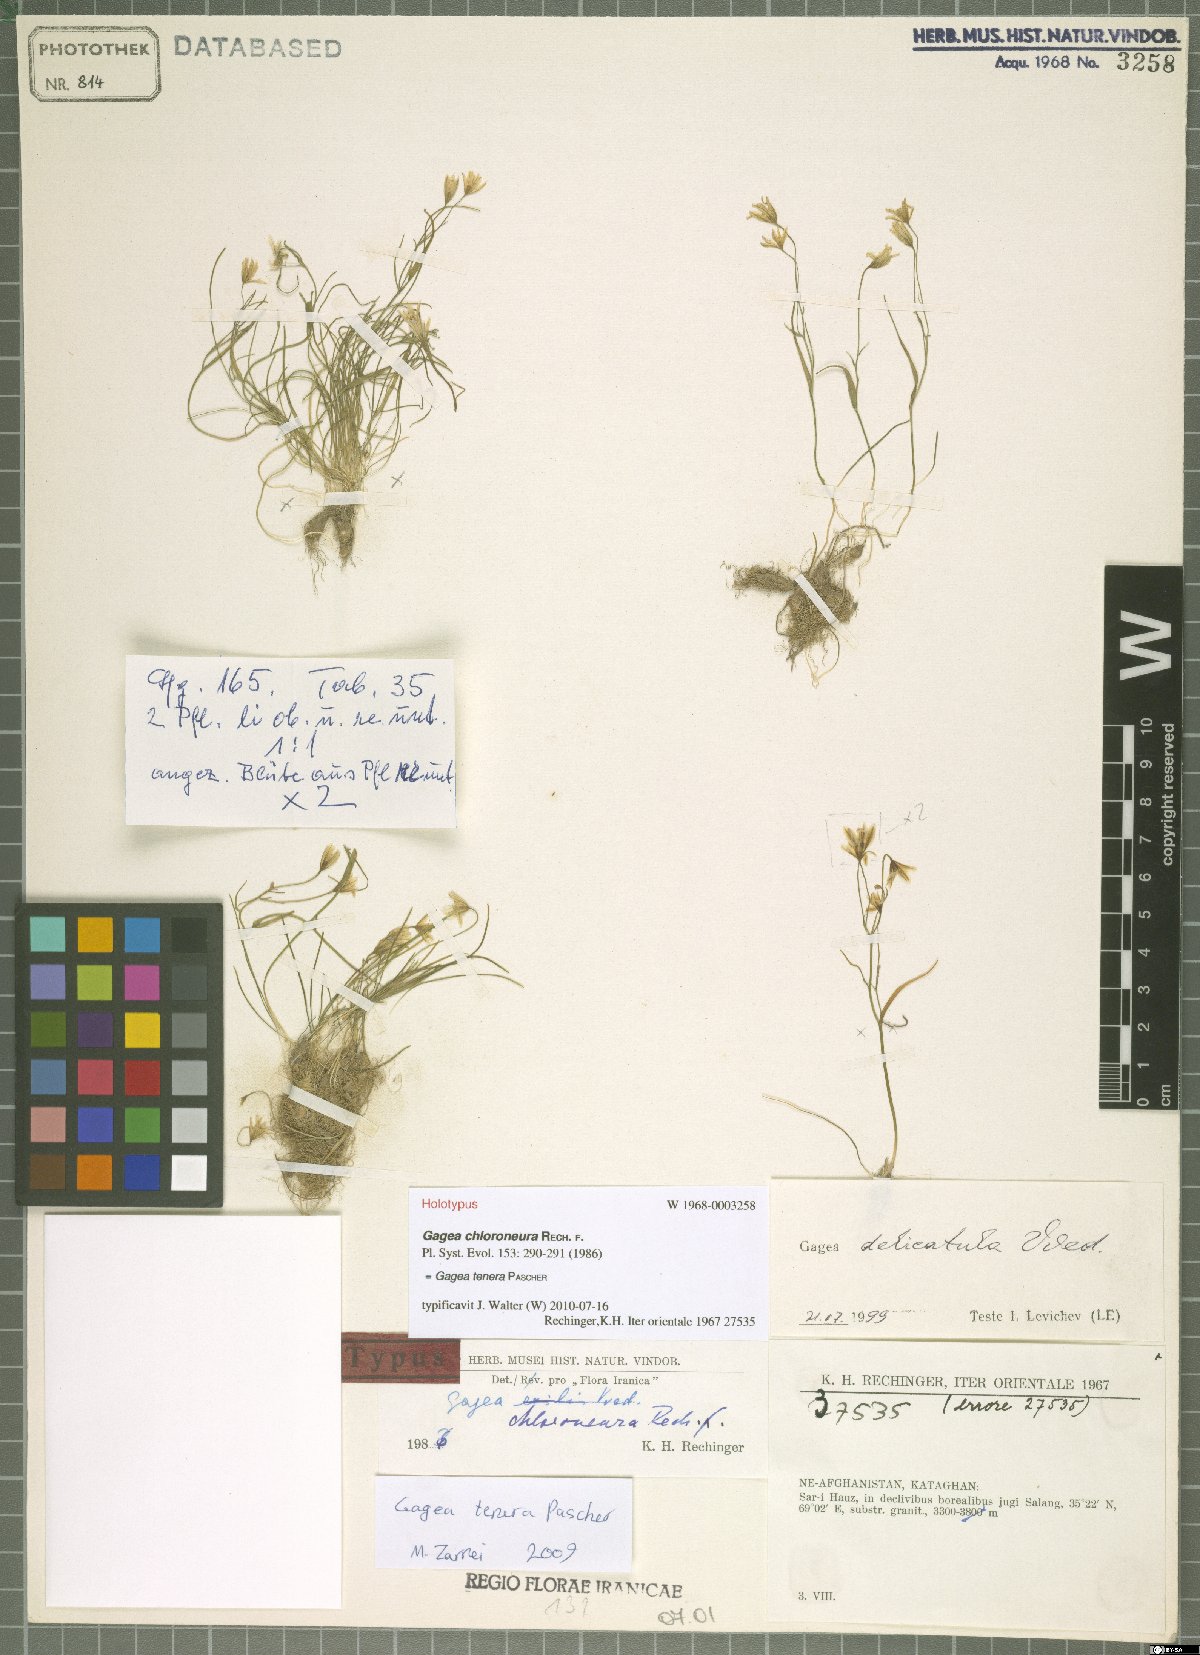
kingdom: Plantae
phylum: Tracheophyta
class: Liliopsida
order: Liliales
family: Liliaceae
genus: Gagea
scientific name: Gagea tenera
